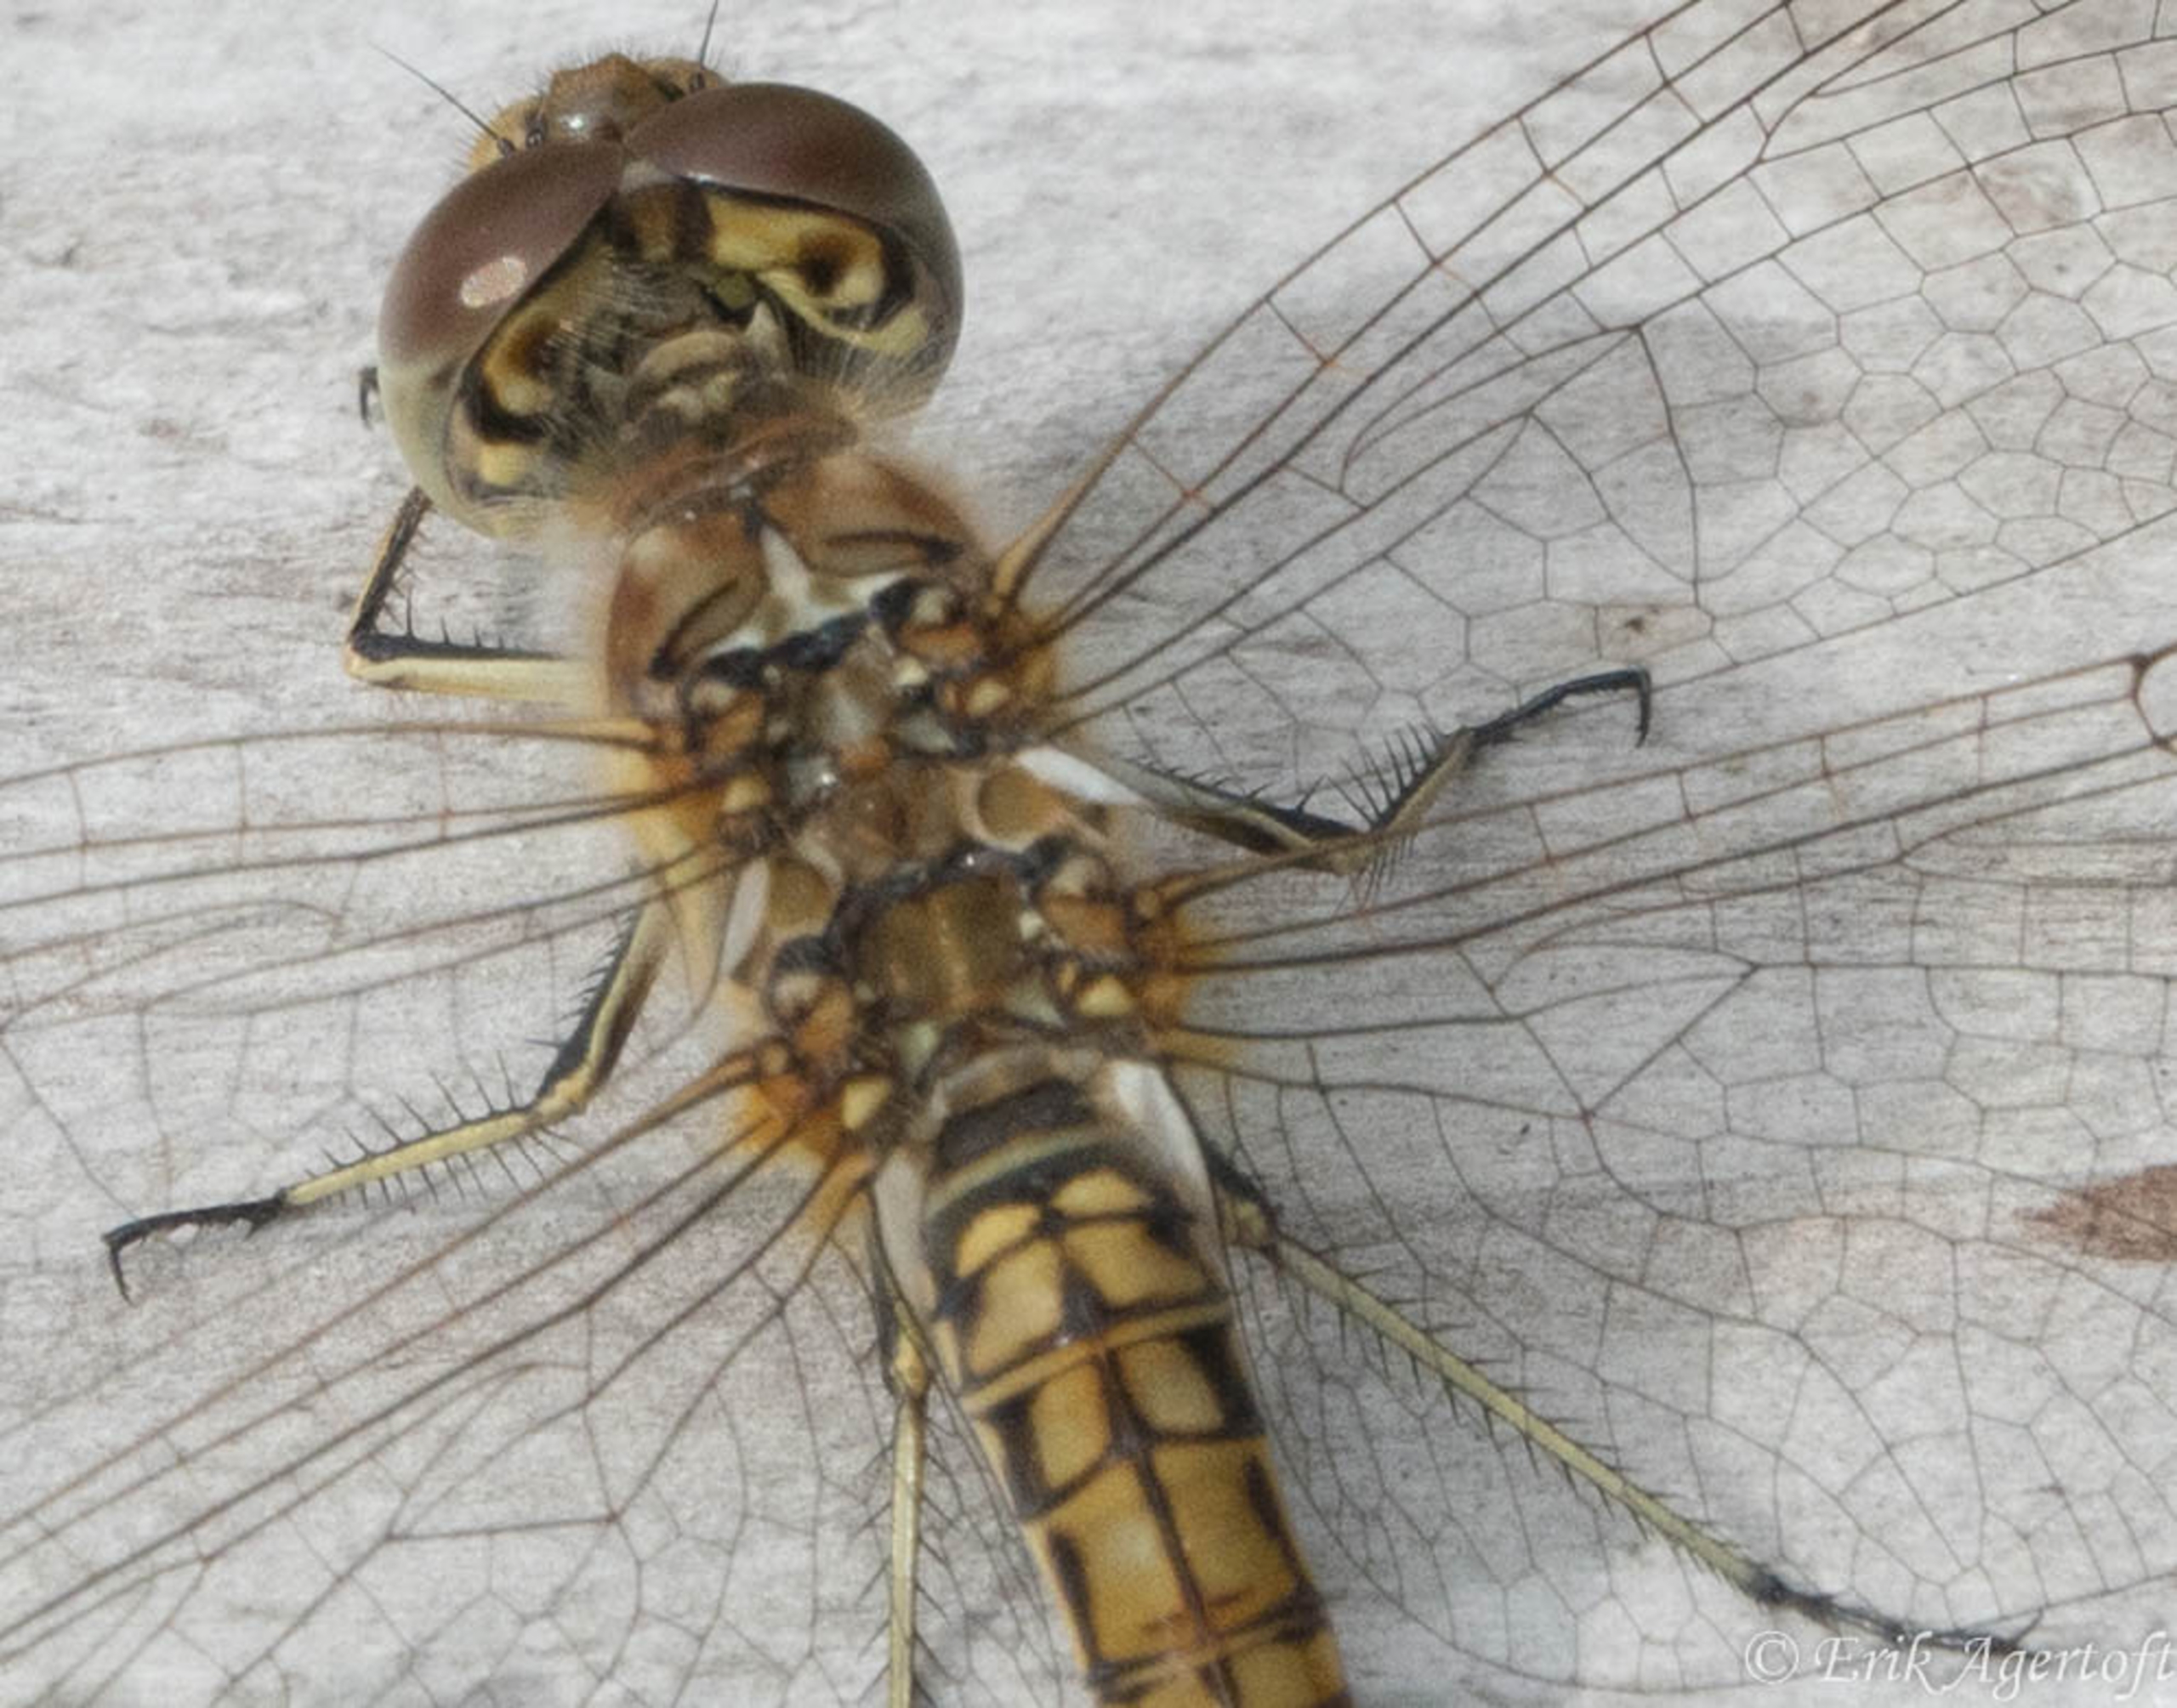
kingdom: Animalia
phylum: Arthropoda
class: Insecta
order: Odonata
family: Libellulidae
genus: Sympetrum
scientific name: Sympetrum vulgatum
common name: Almindelig hedelibel
